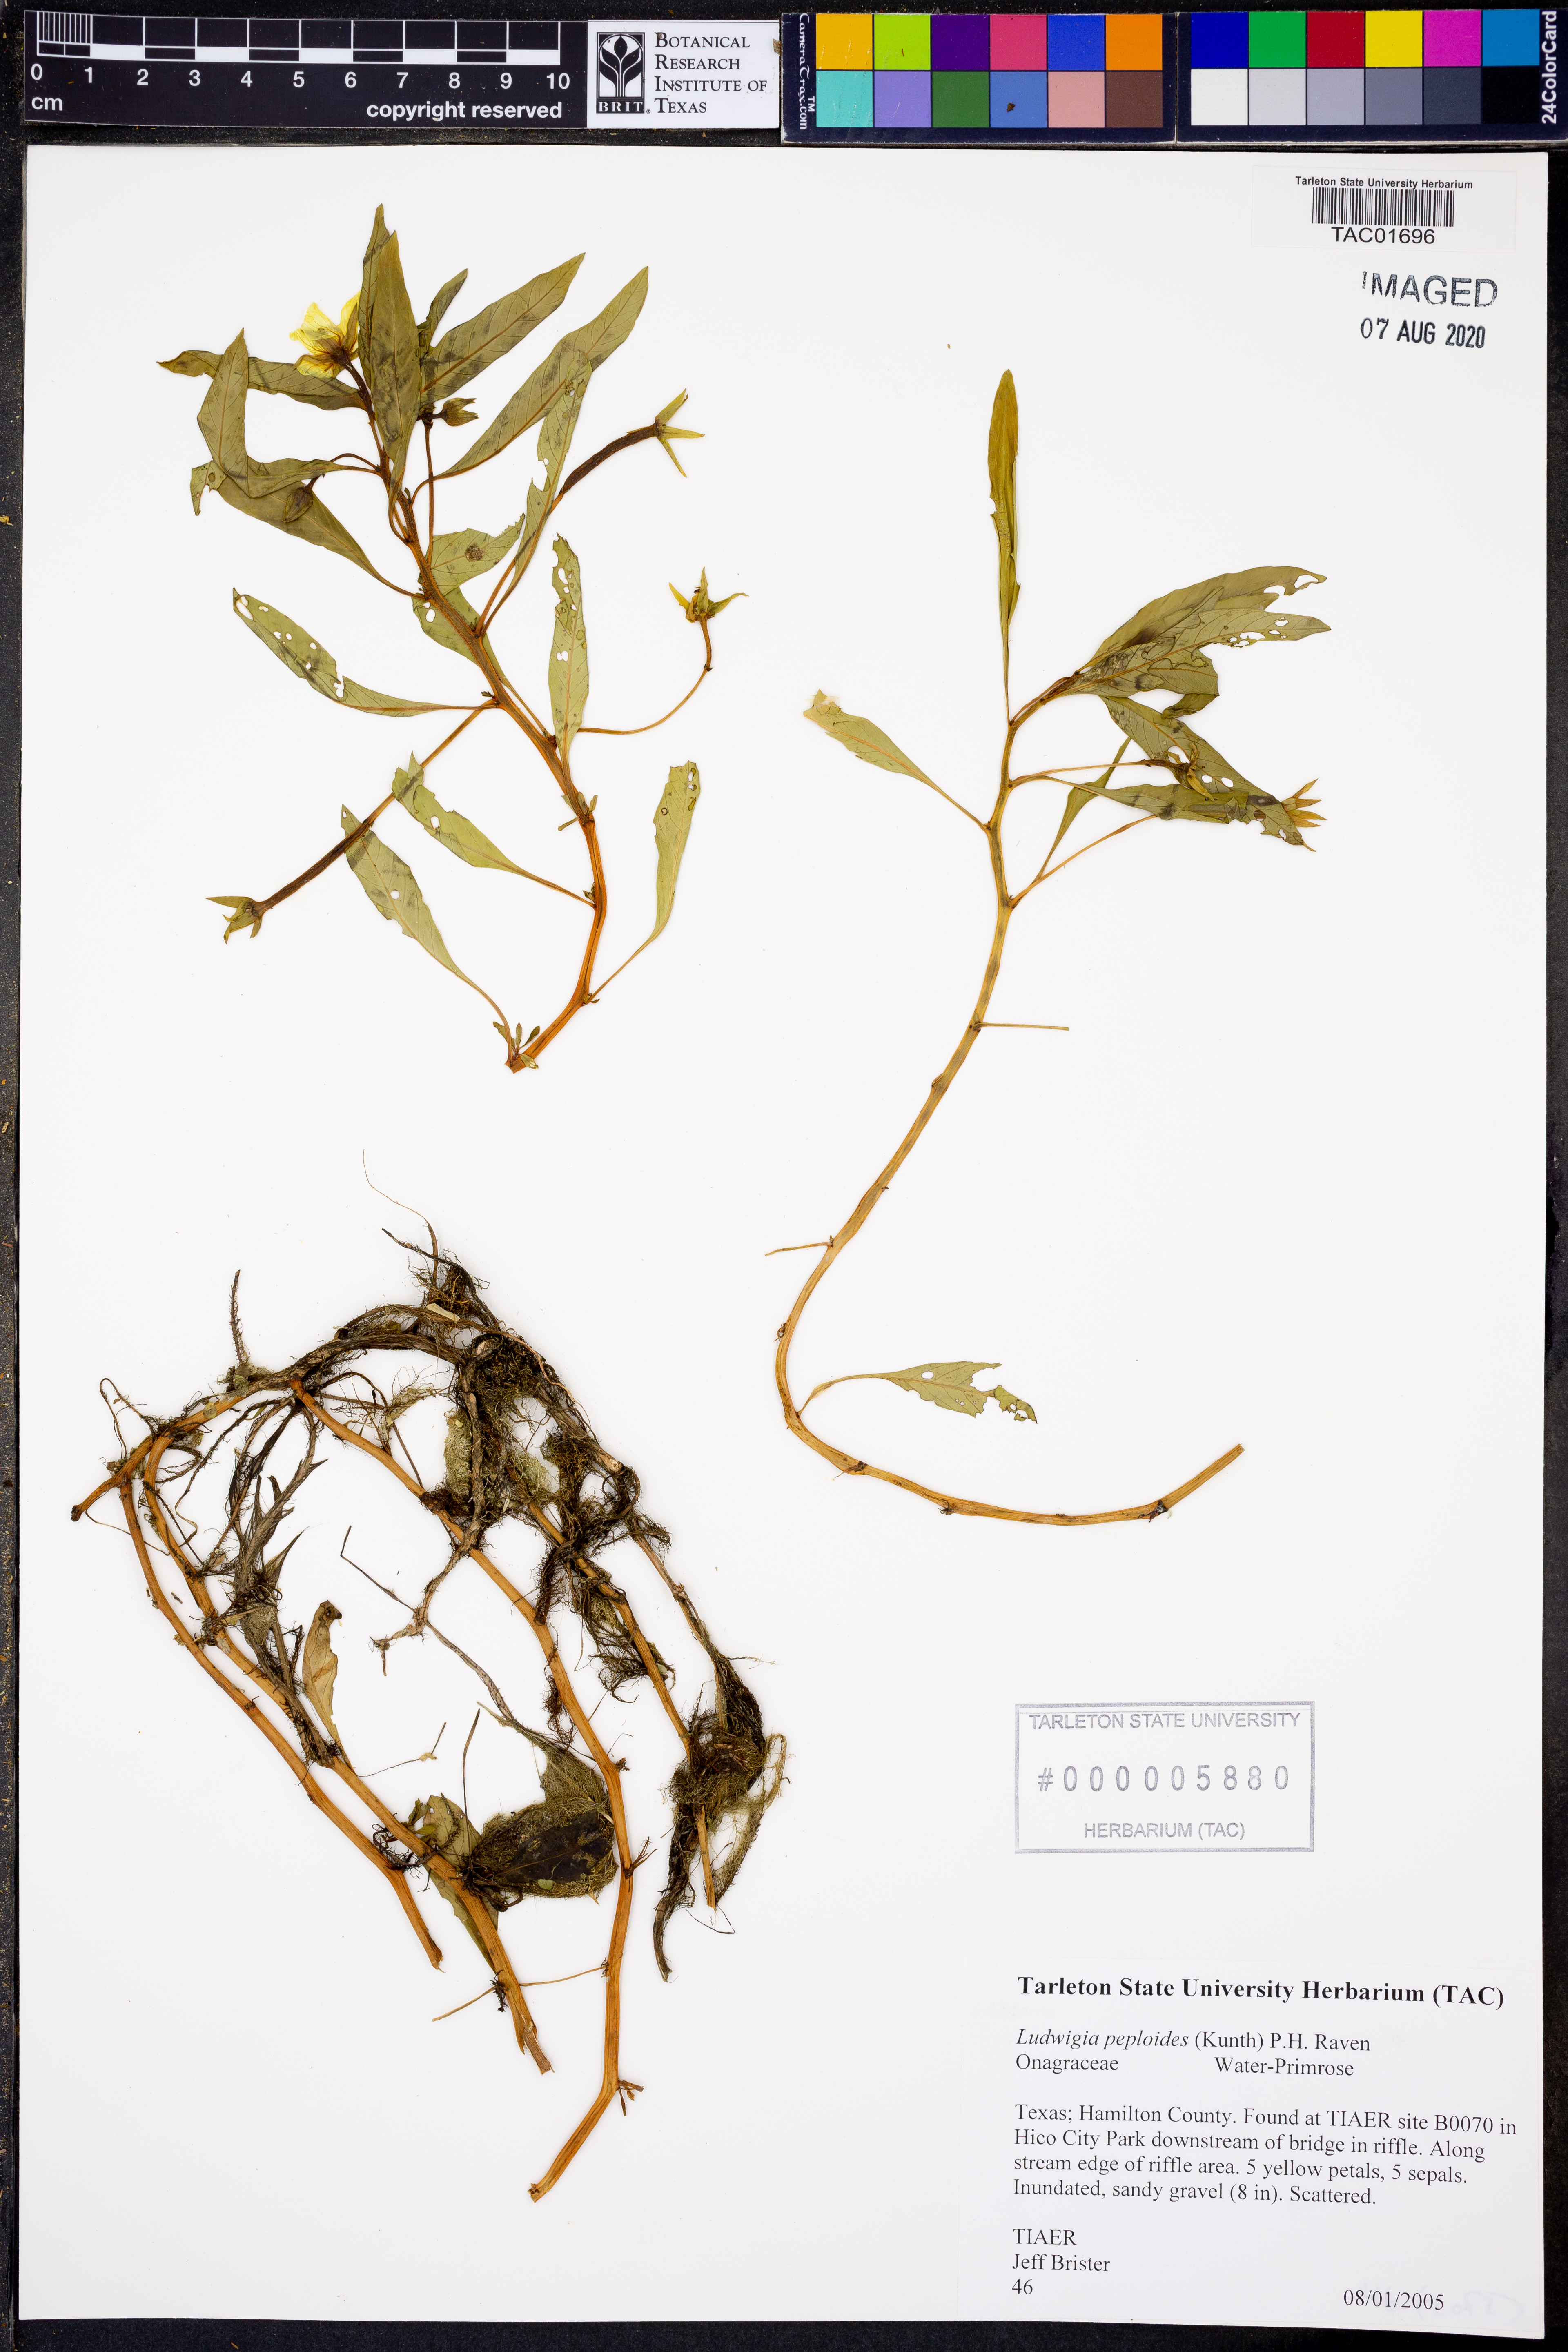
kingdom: Plantae
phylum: Tracheophyta
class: Magnoliopsida
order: Myrtales
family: Onagraceae
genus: Ludwigia
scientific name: Ludwigia peploides
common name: Floating primrose-willow
